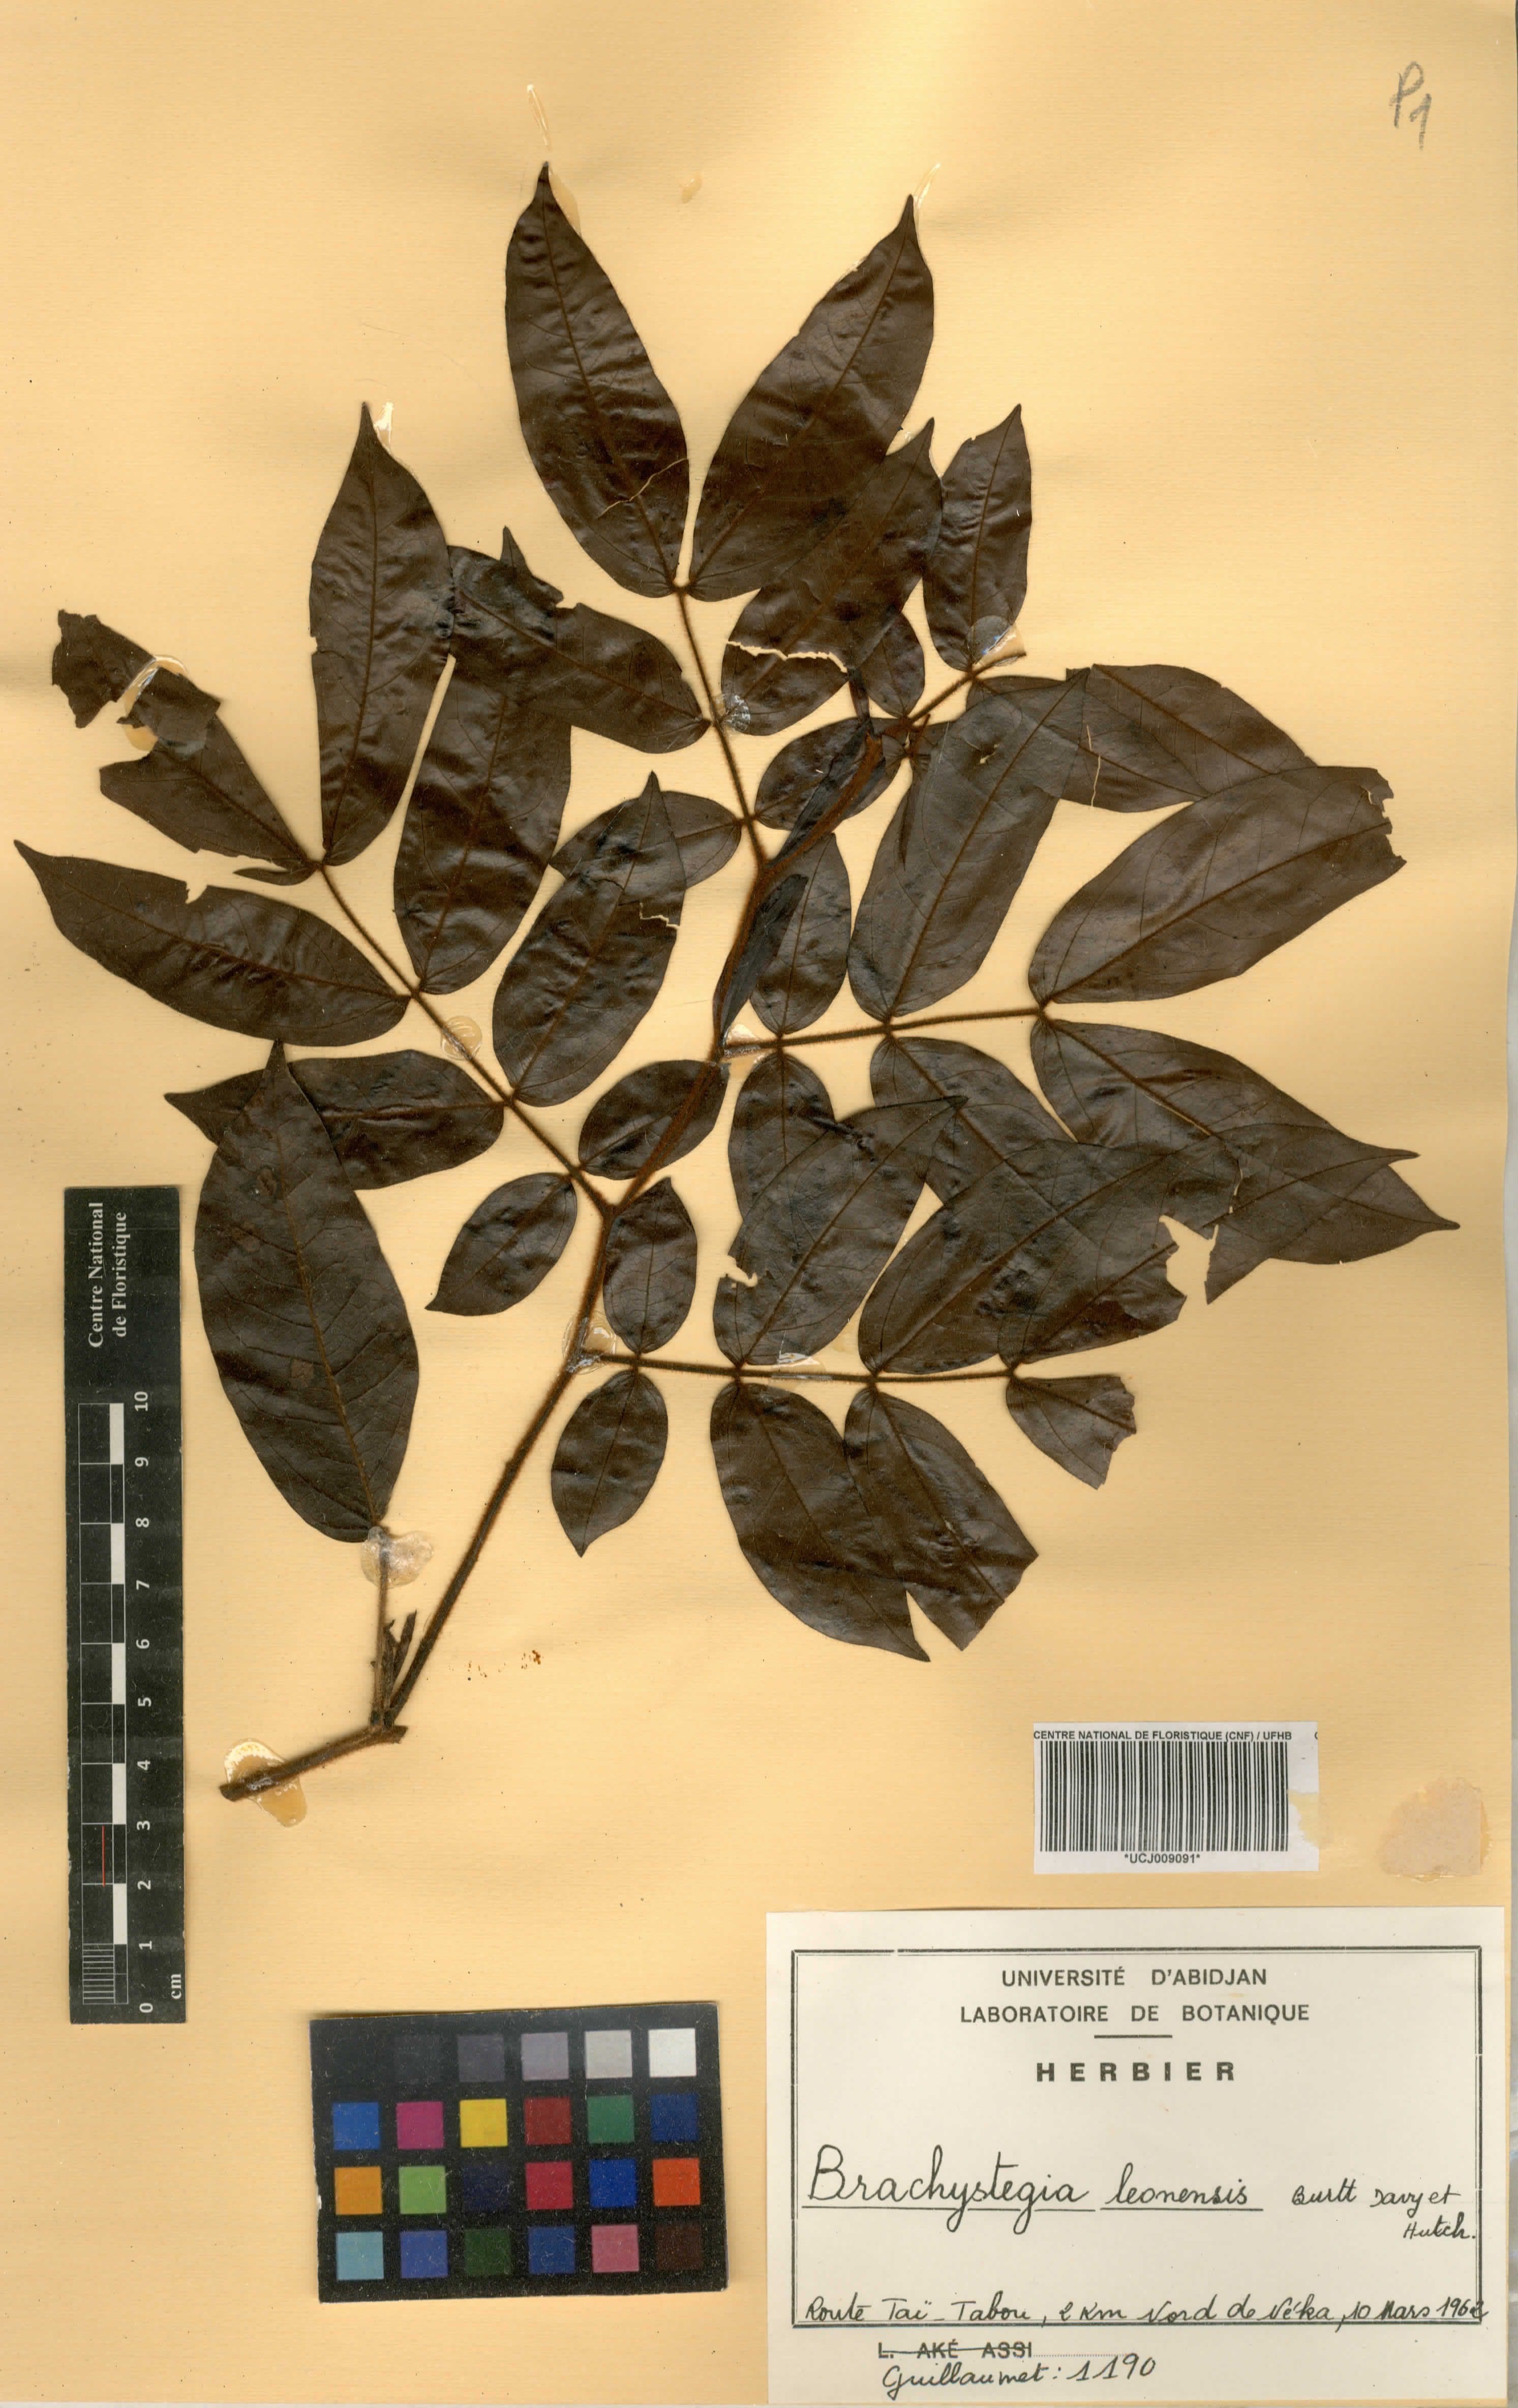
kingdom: Plantae
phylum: Tracheophyta
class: Magnoliopsida
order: Fabales
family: Fabaceae
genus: Brachystegia
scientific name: Brachystegia leonensis
